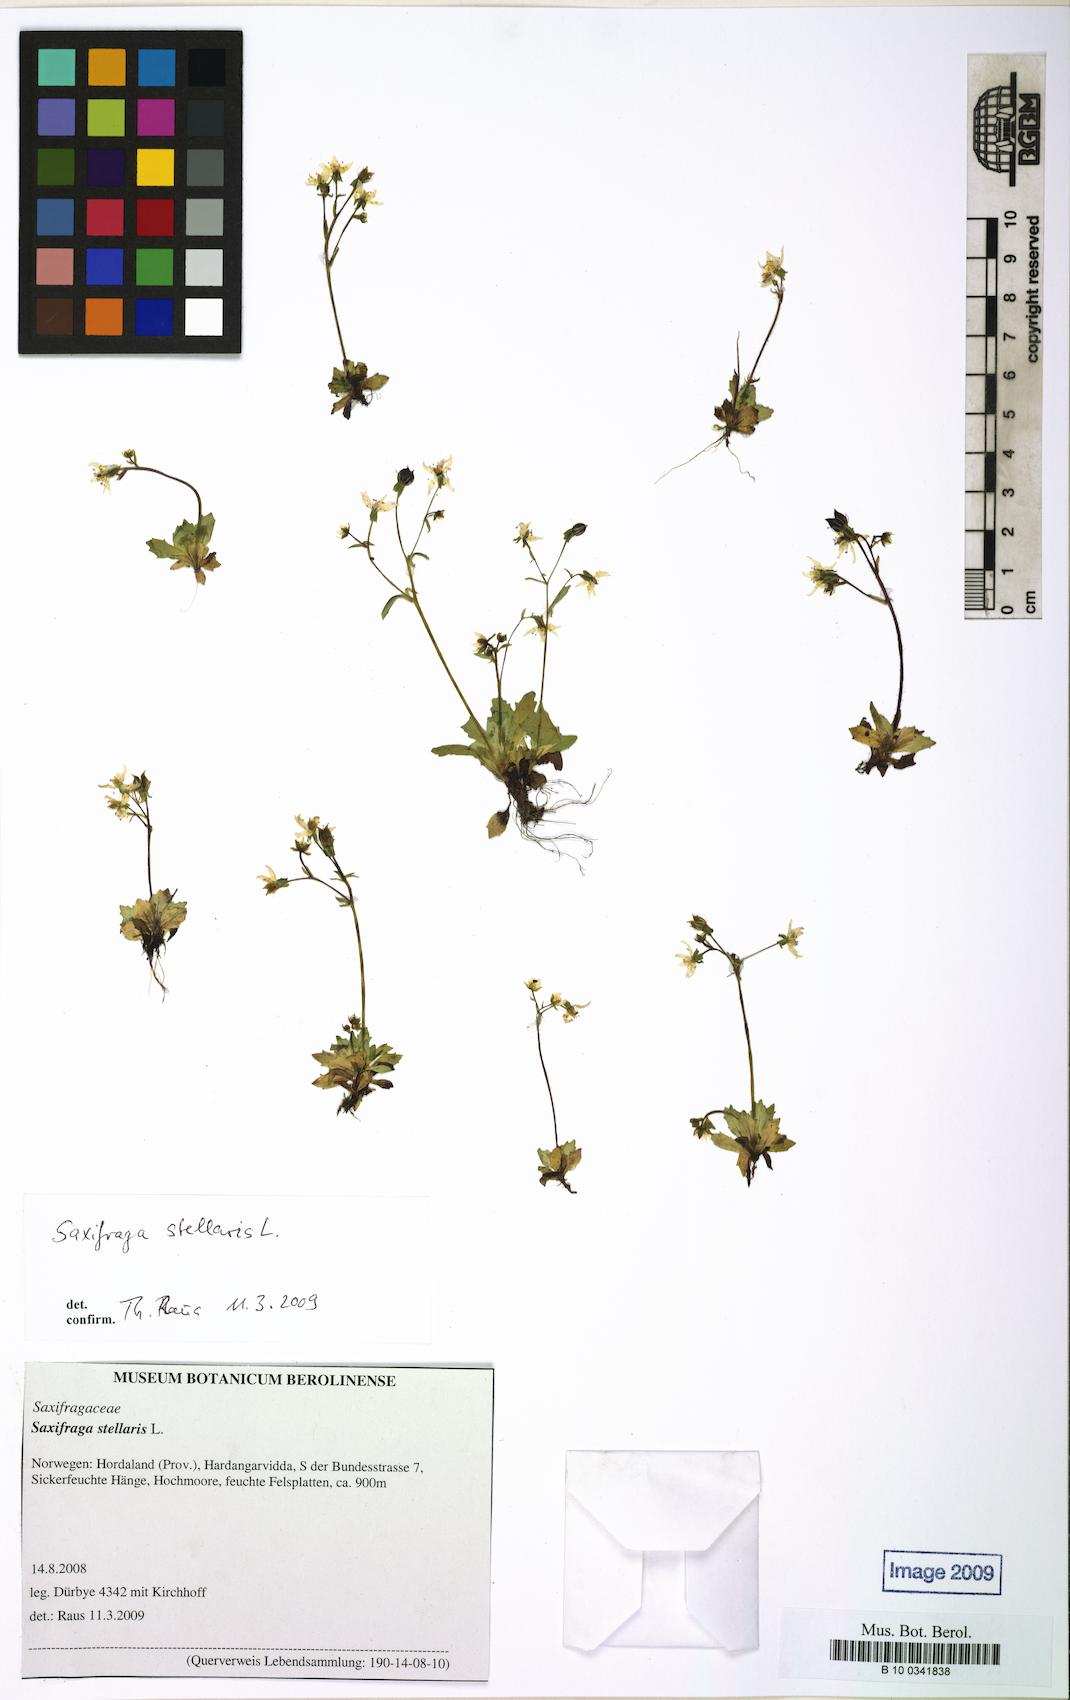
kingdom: Plantae
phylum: Tracheophyta
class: Magnoliopsida
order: Saxifragales
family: Saxifragaceae
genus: Micranthes
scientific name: Micranthes stellaris
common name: Starry saxifrage
